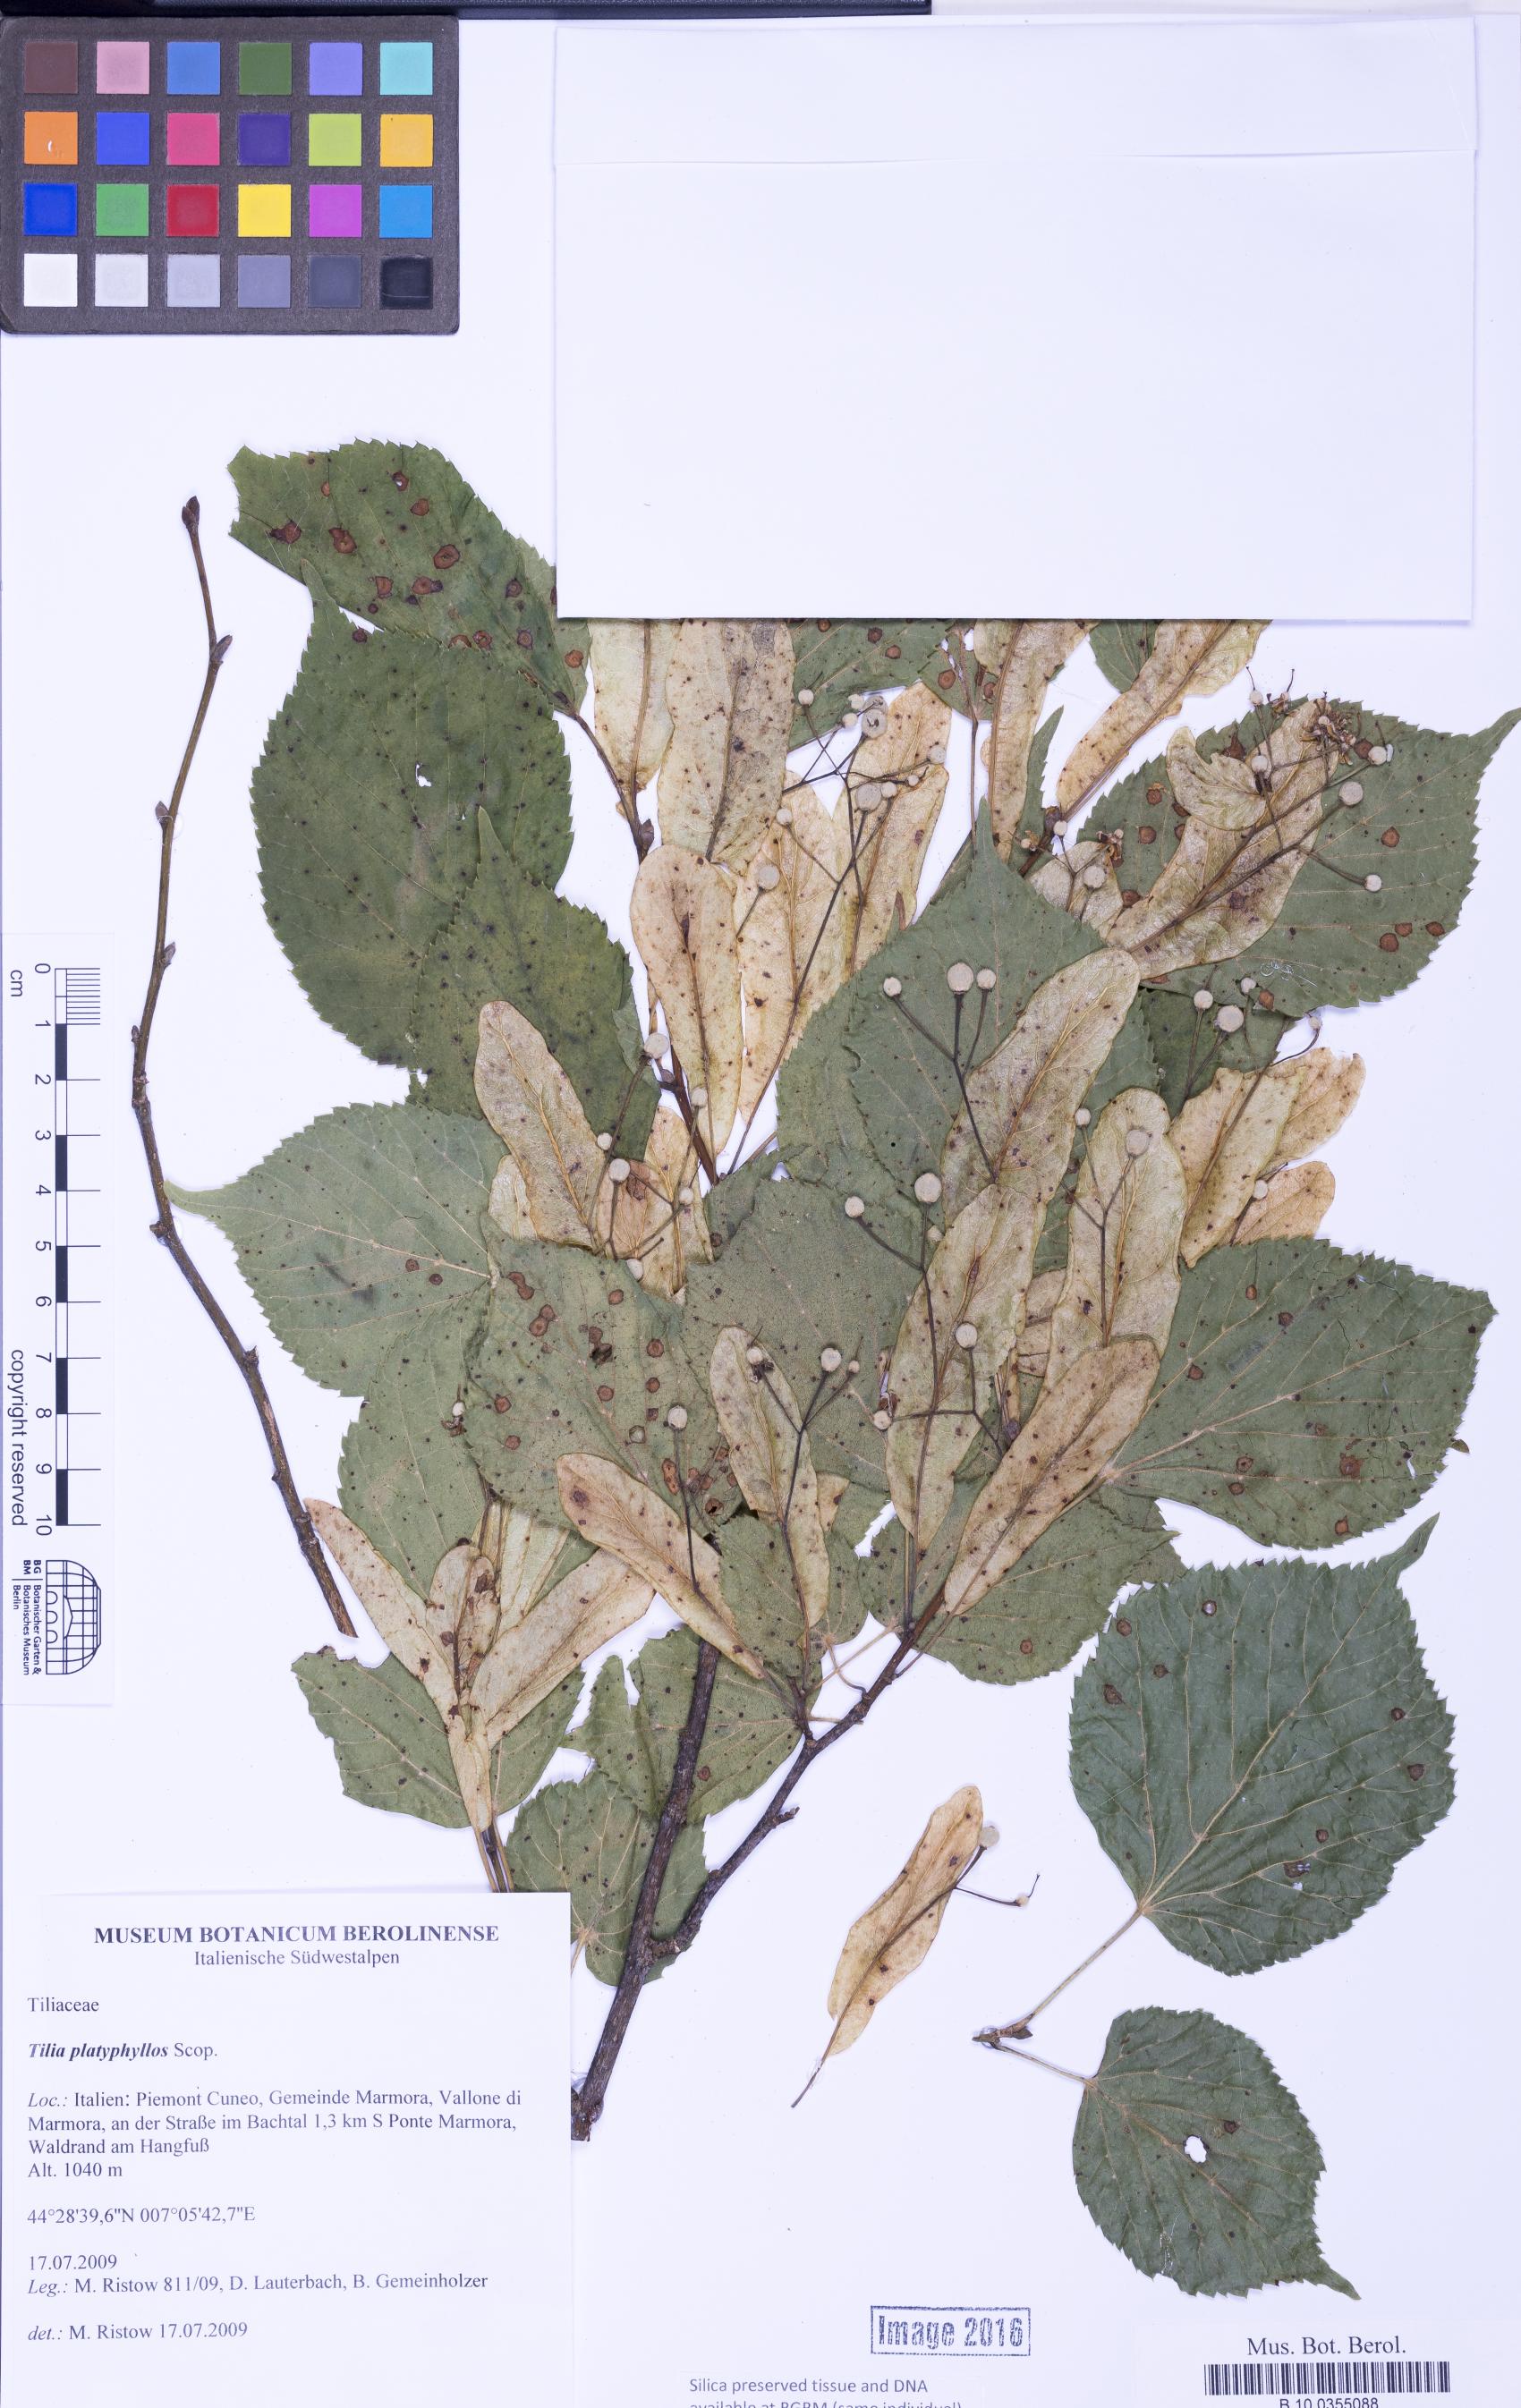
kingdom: Plantae
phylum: Tracheophyta
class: Magnoliopsida
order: Malvales
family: Malvaceae
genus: Tilia
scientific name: Tilia platyphyllos
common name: Large-leaved lime
